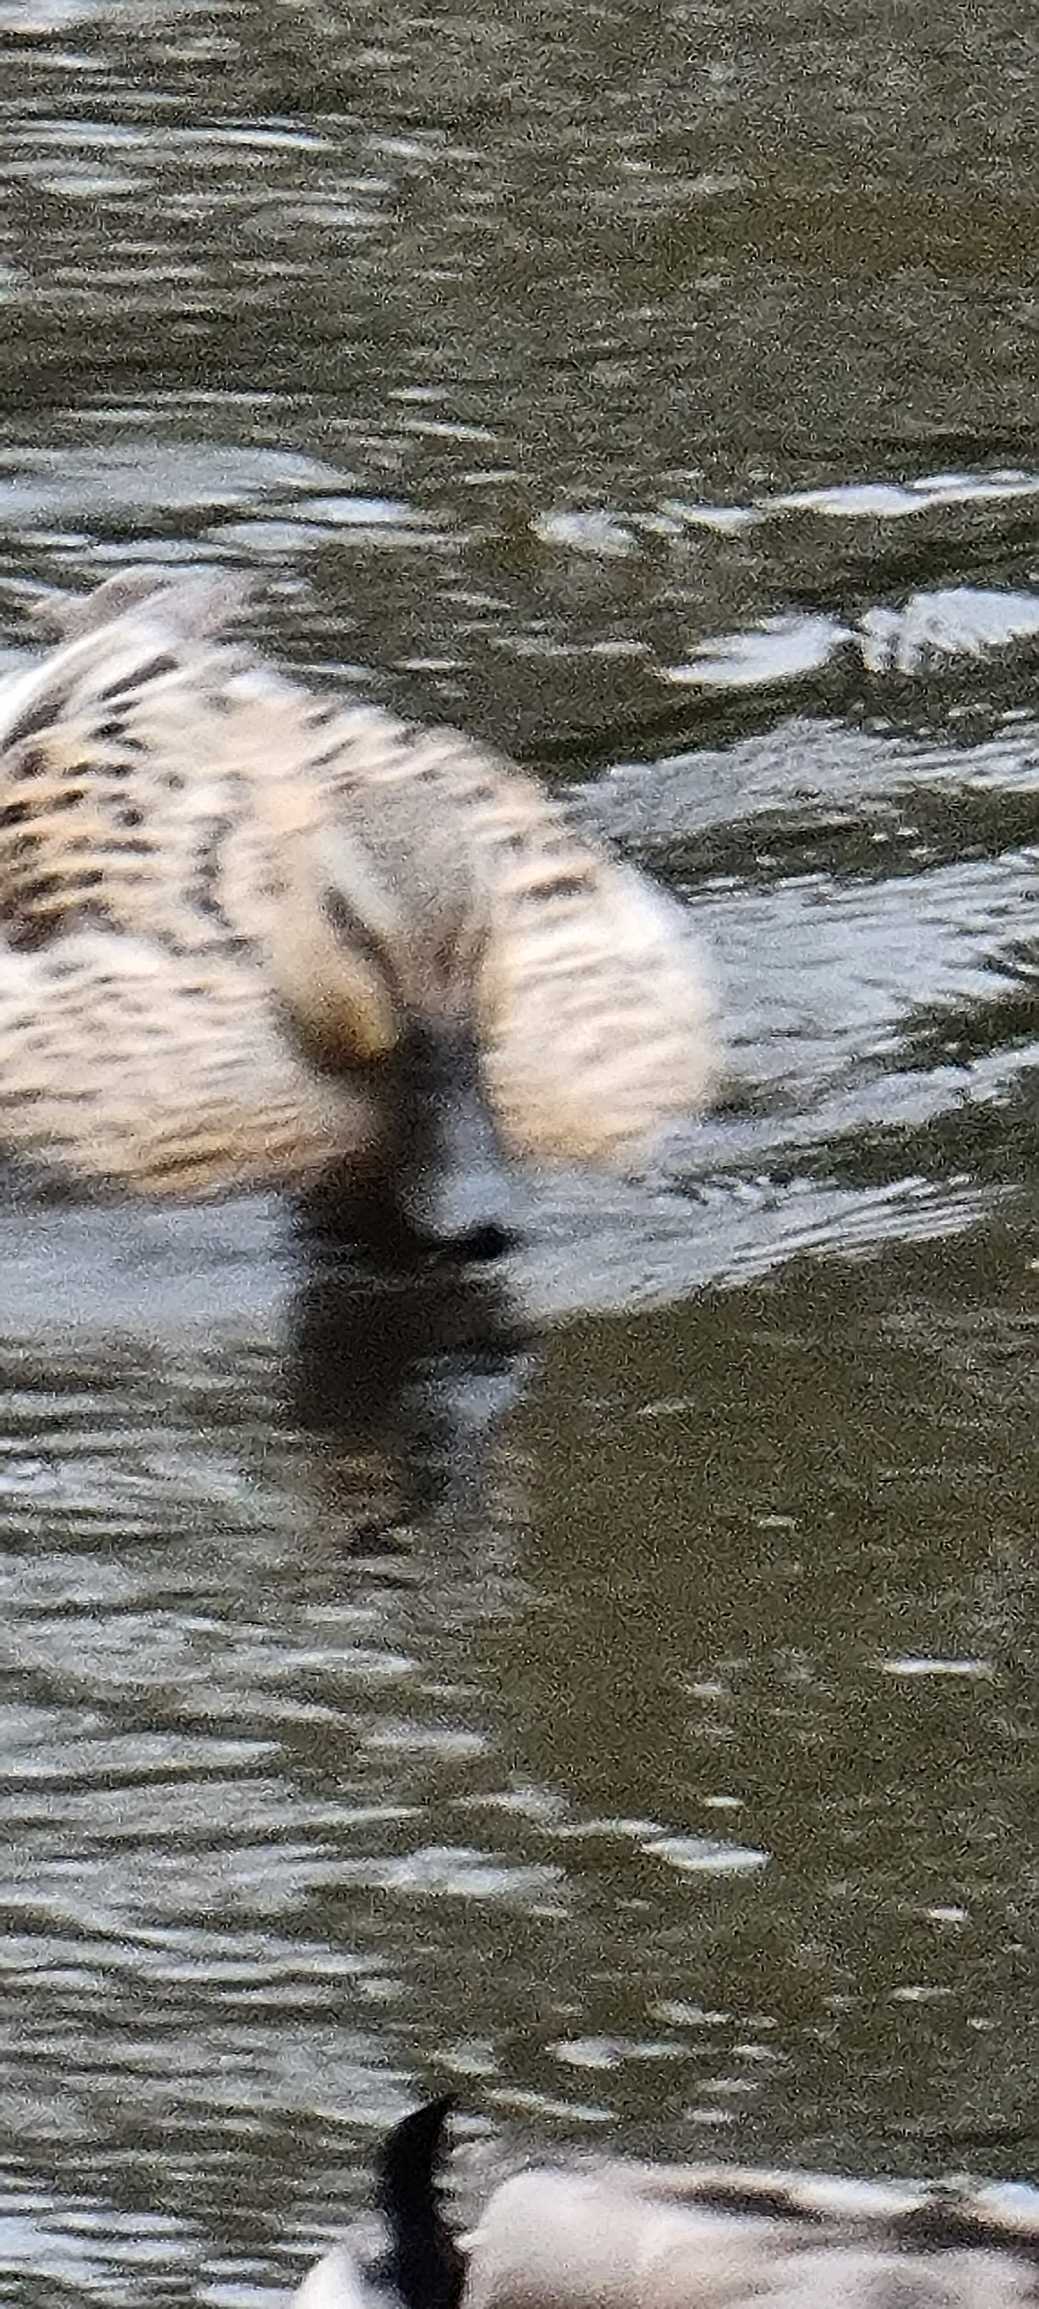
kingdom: Animalia
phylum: Chordata
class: Aves
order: Anseriformes
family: Anatidae
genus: Anas
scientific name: Anas platyrhynchos
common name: Gråand
